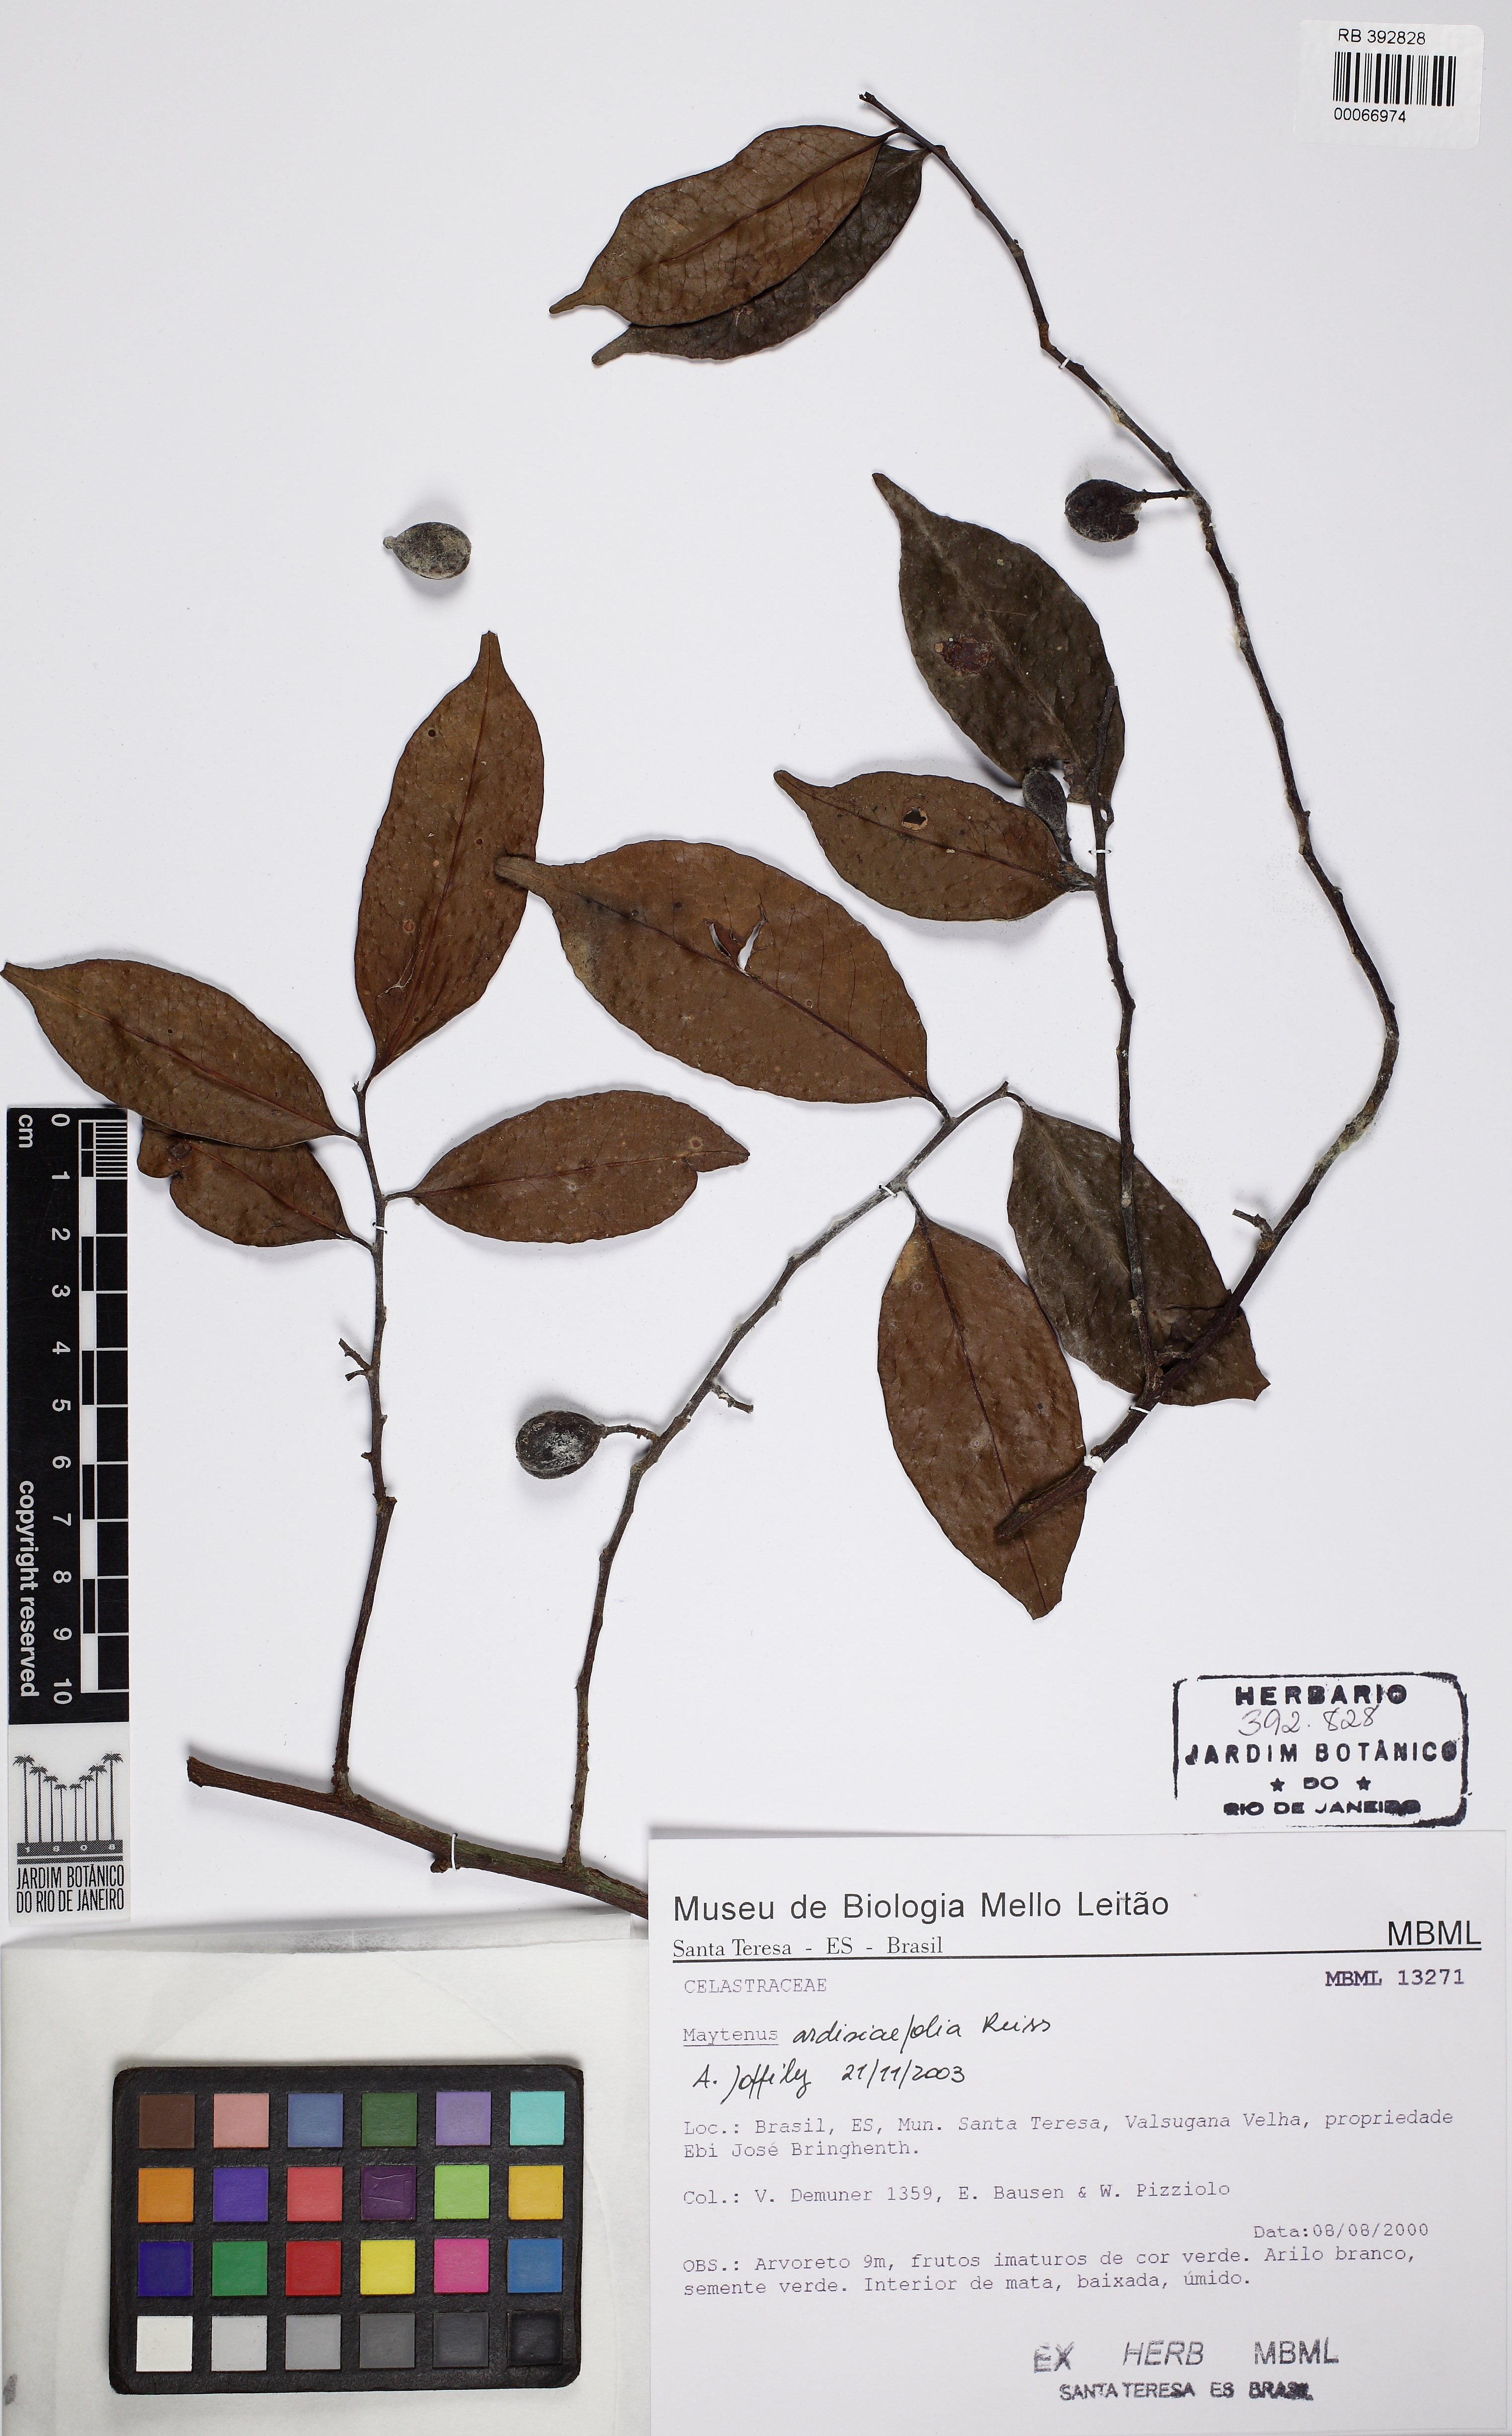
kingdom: Plantae
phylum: Tracheophyta
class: Magnoliopsida
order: Celastrales
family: Celastraceae
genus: Monteverdia
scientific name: Monteverdia brasiliensis
